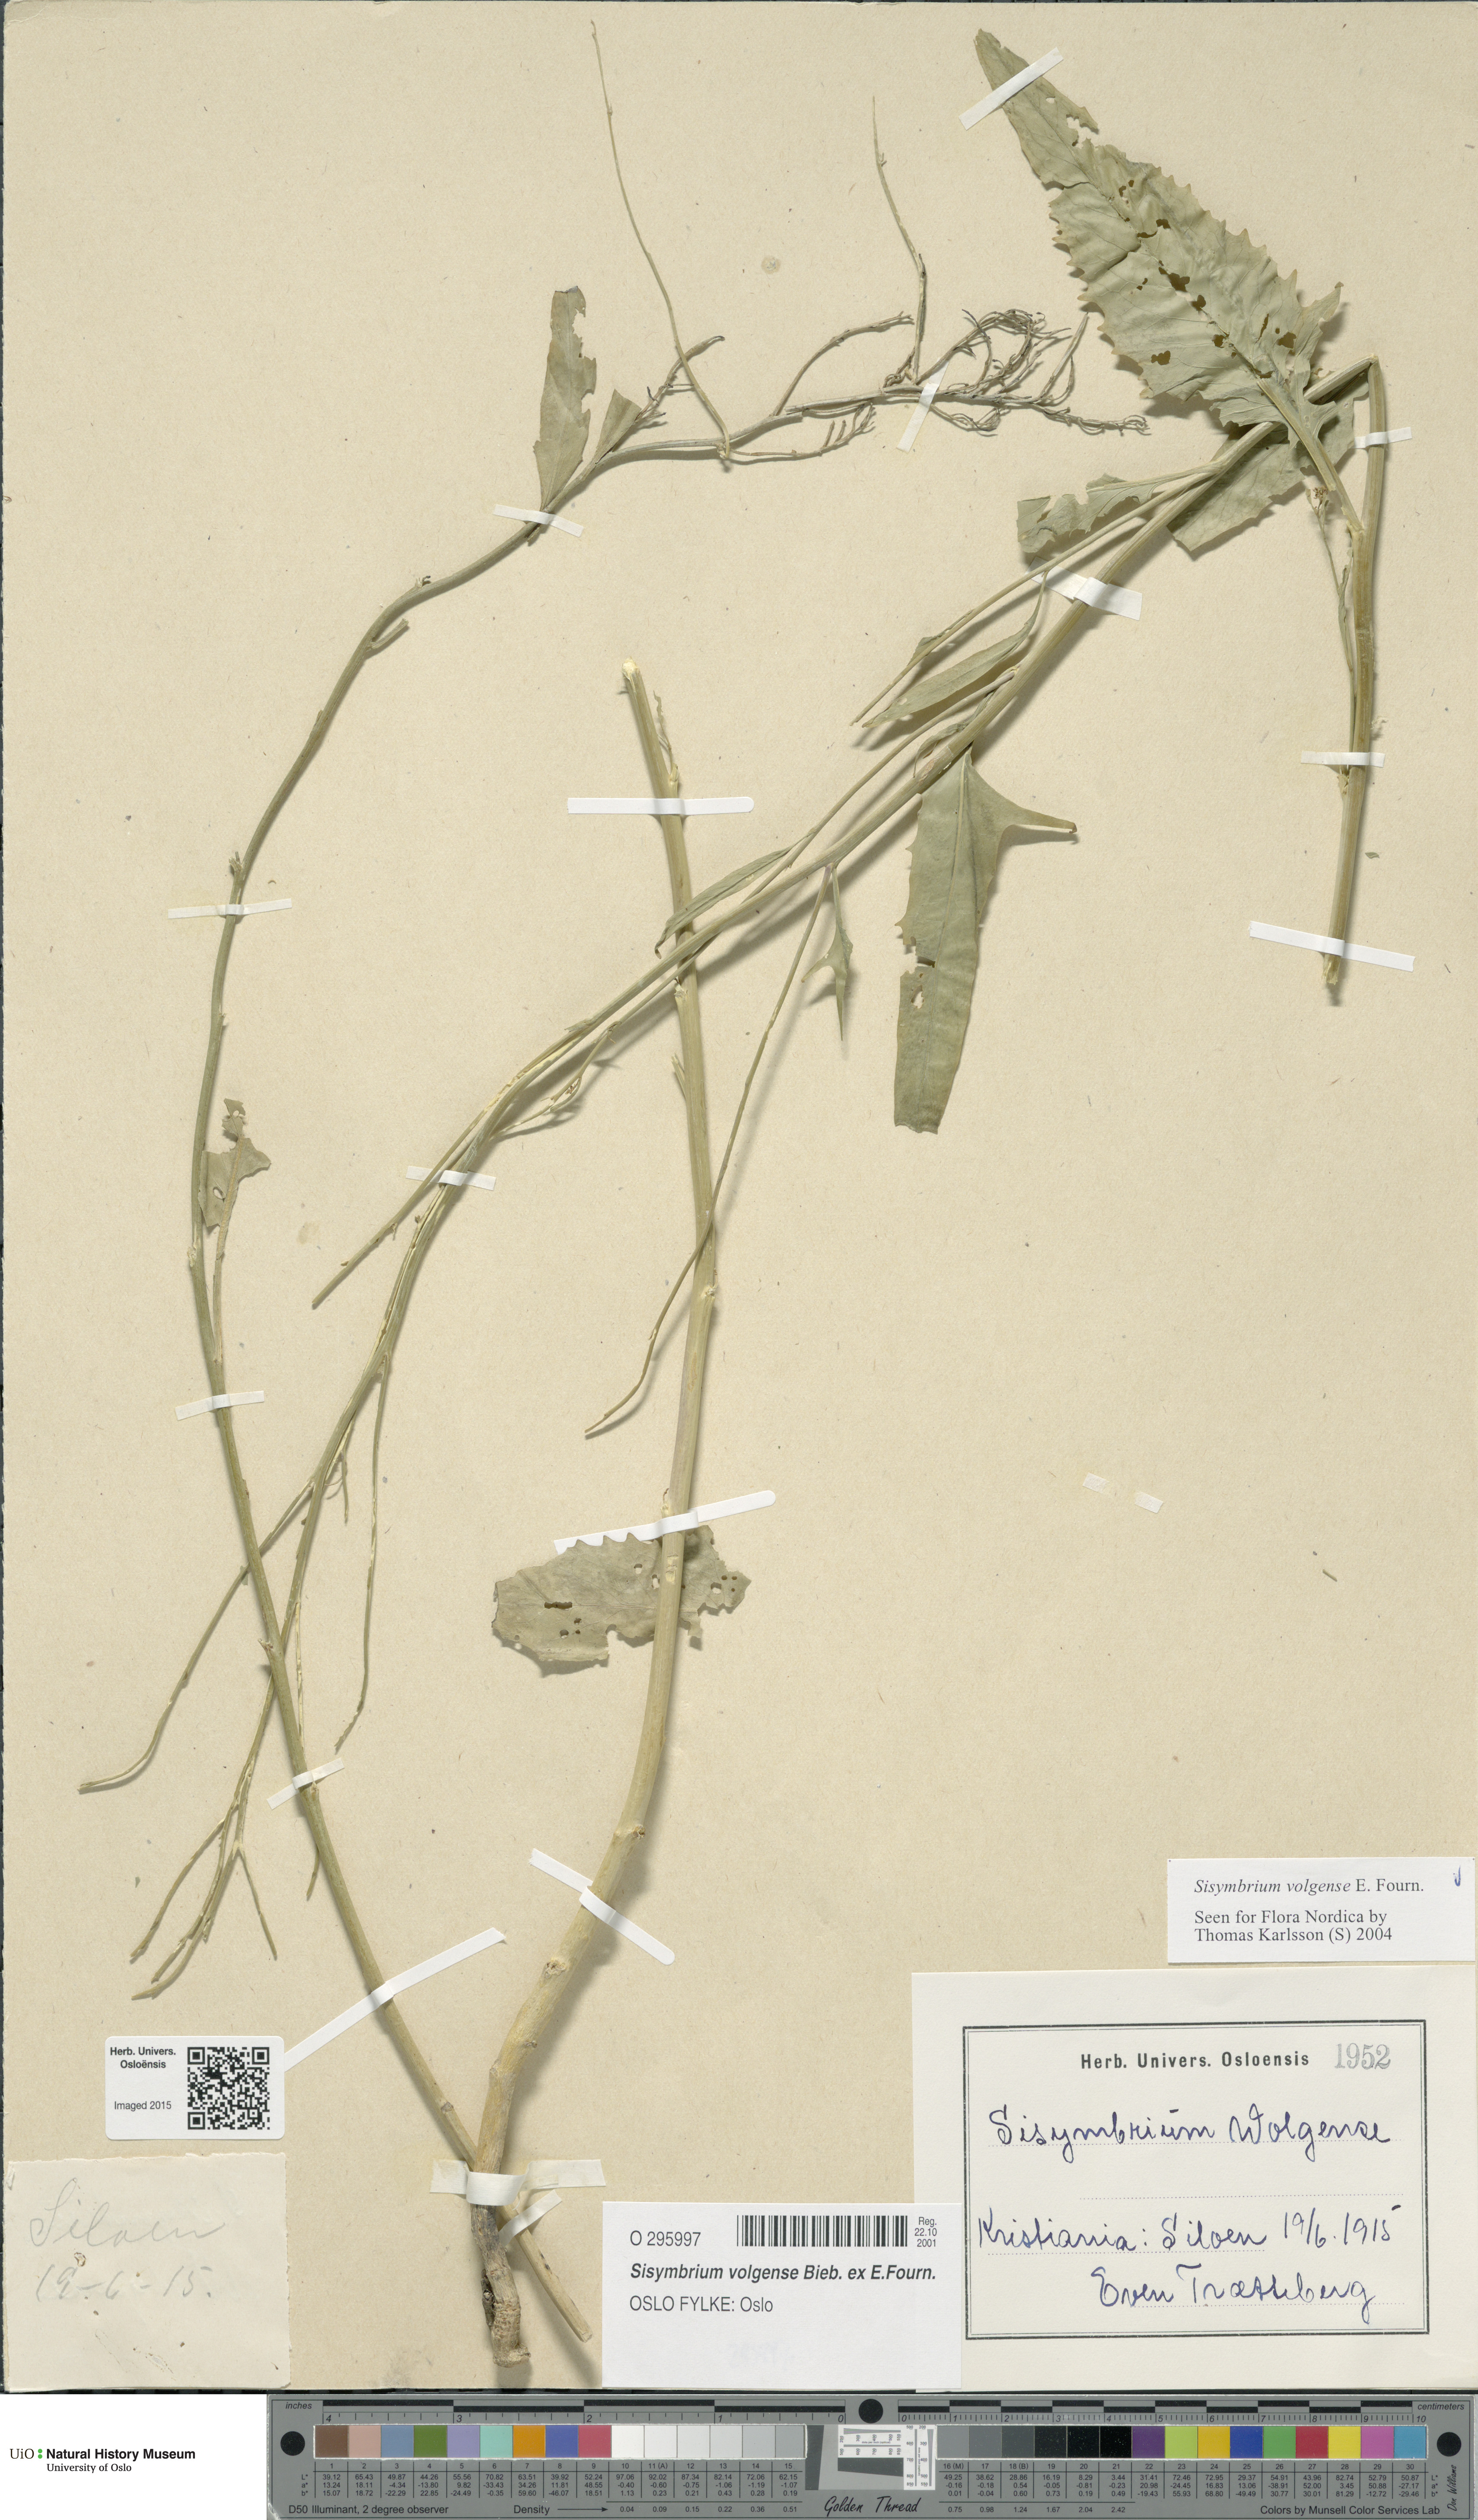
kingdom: Plantae
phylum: Tracheophyta
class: Magnoliopsida
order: Brassicales
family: Brassicaceae
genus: Sisymbrium
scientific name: Sisymbrium volgense
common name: Russian mustard
